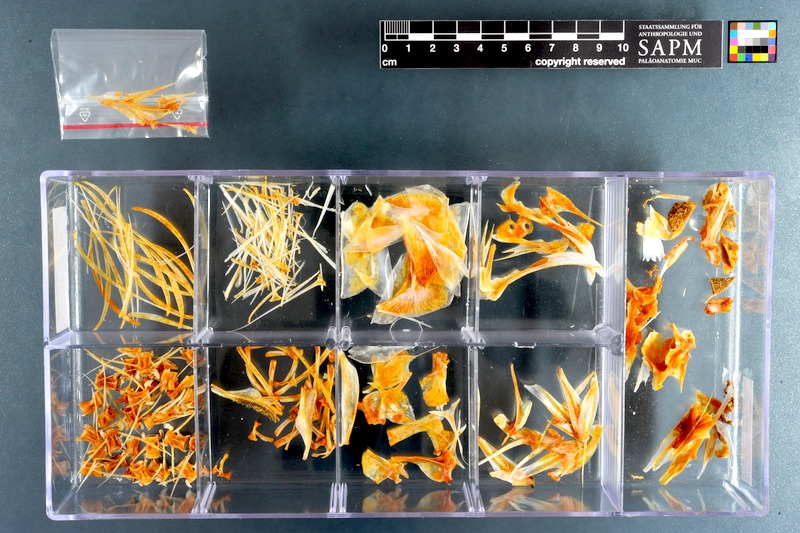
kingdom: Animalia
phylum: Chordata
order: Perciformes
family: Scombridae
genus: Scomber
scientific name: Scomber japonicus
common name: Chub mackerel
